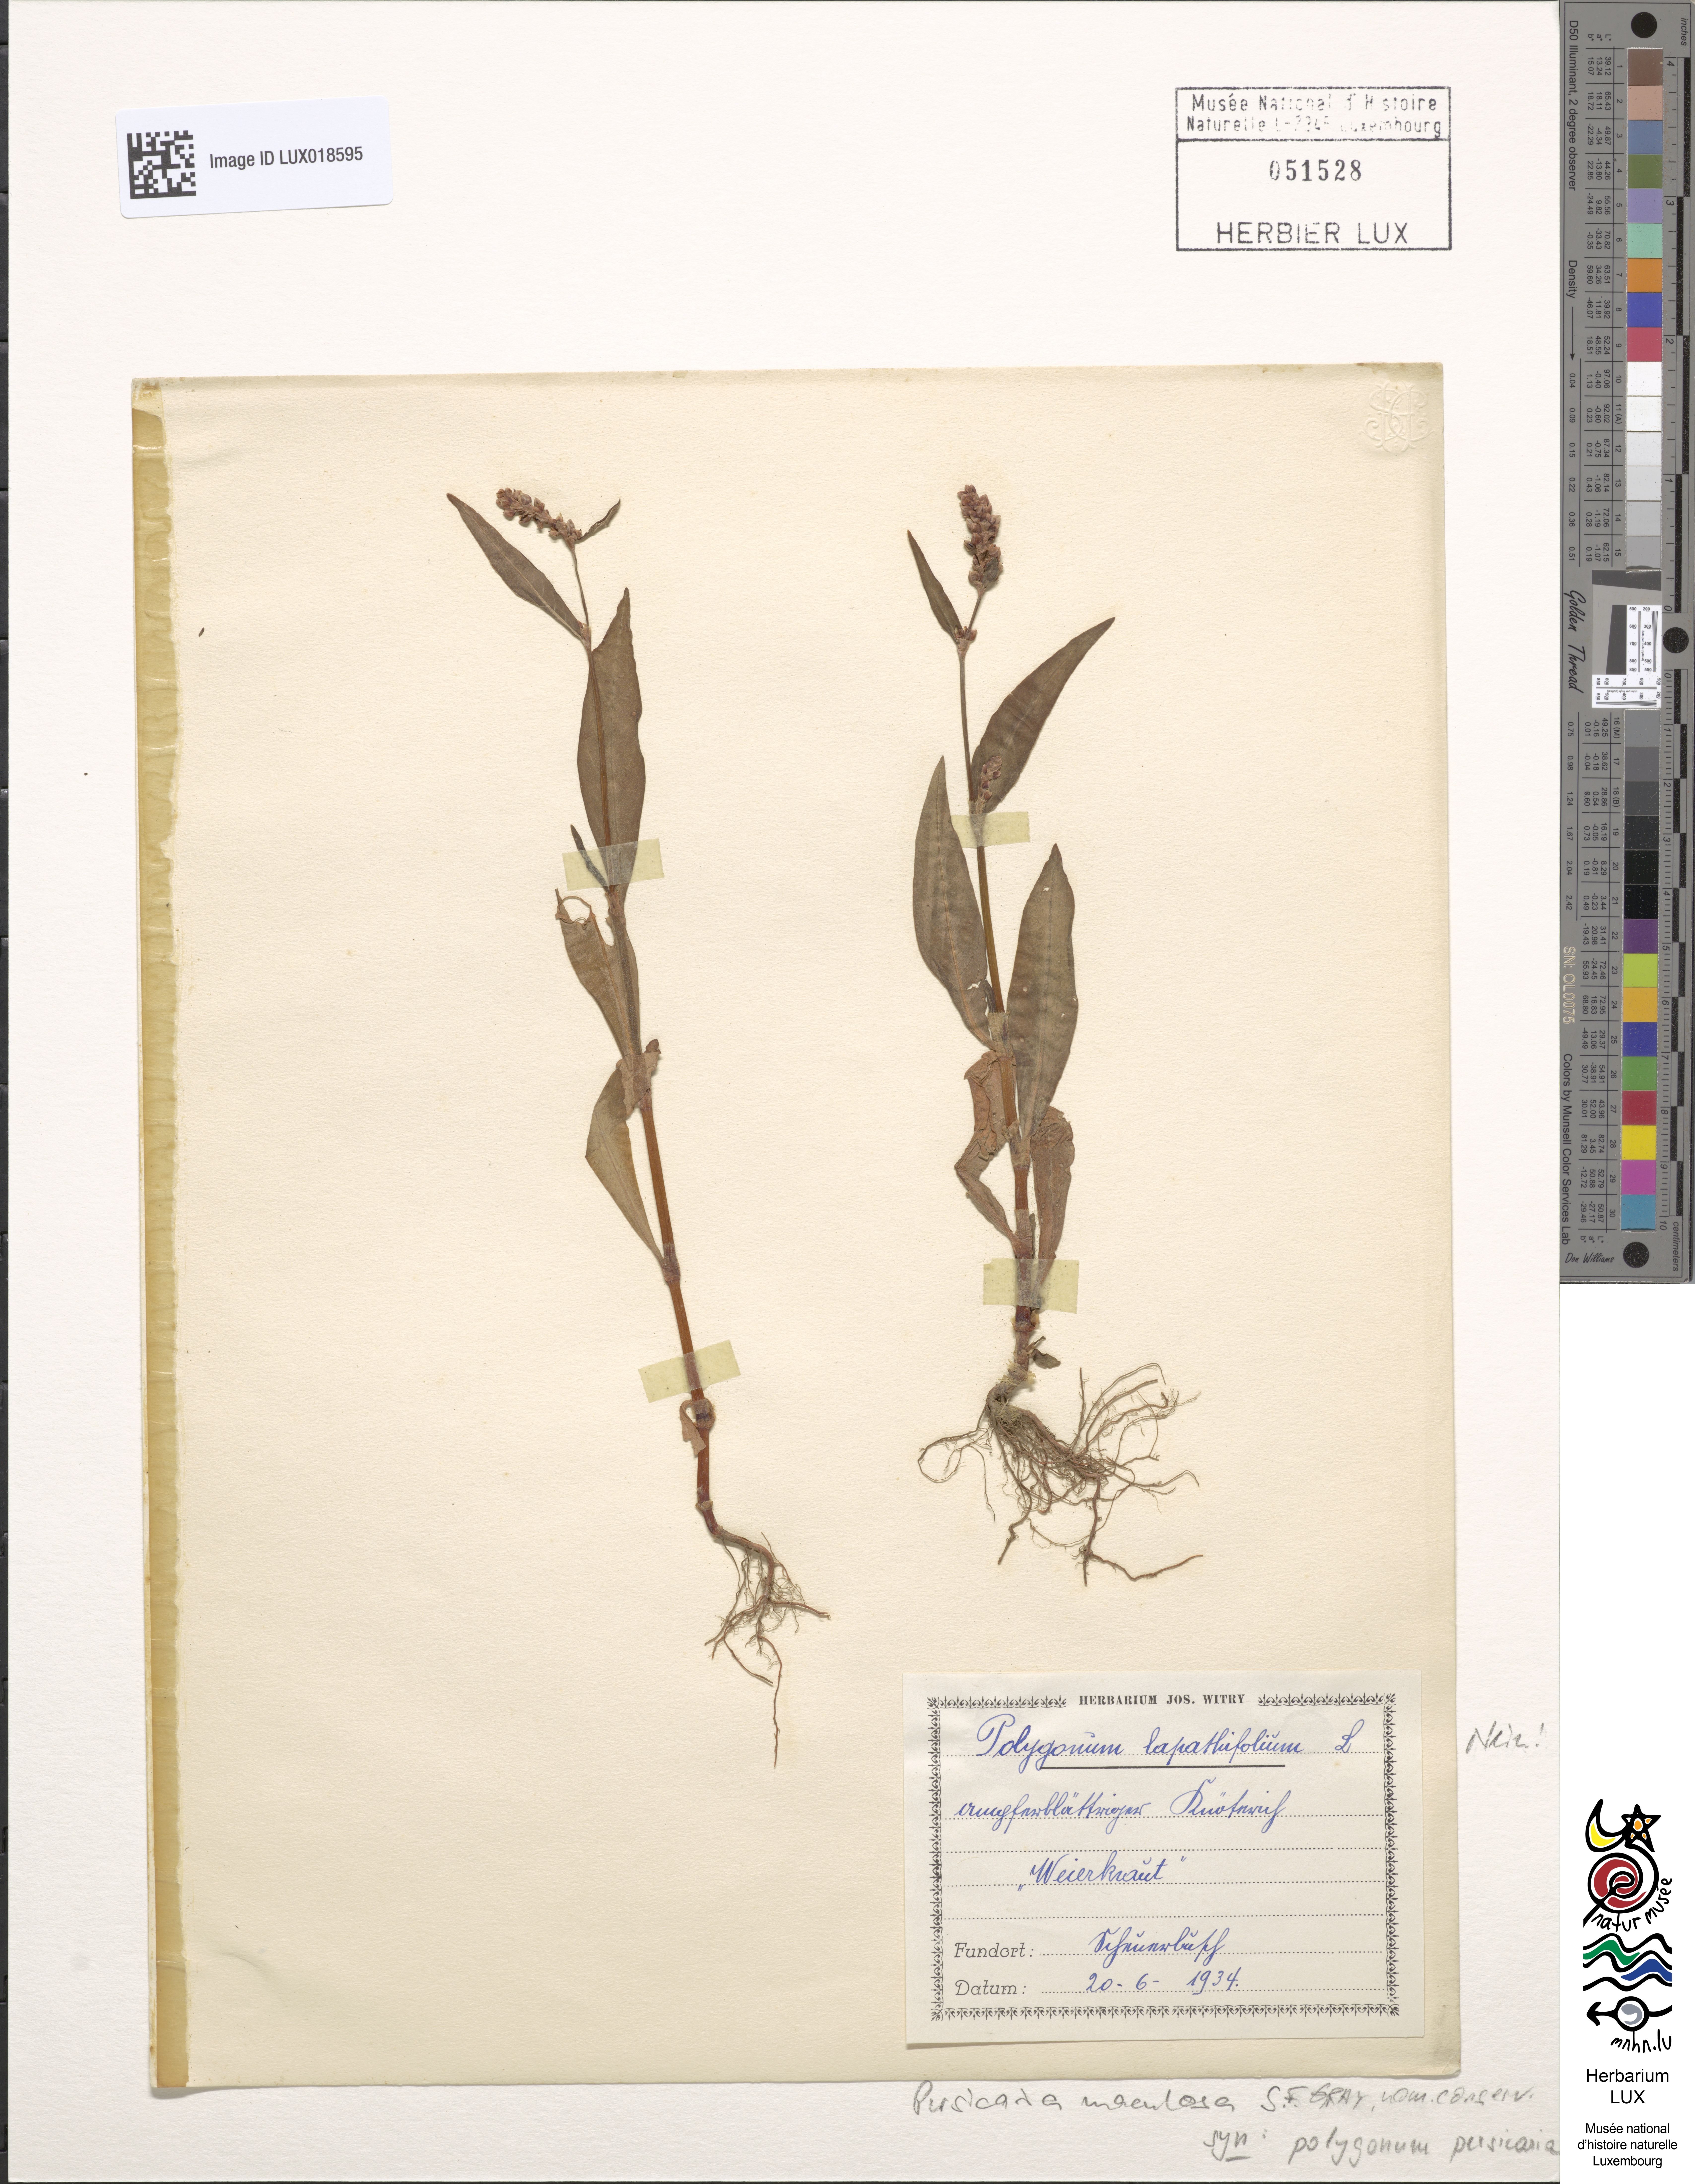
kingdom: Plantae
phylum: Tracheophyta
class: Magnoliopsida
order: Caryophyllales
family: Polygonaceae
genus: Persicaria
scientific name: Persicaria maculosa
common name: Redshank
